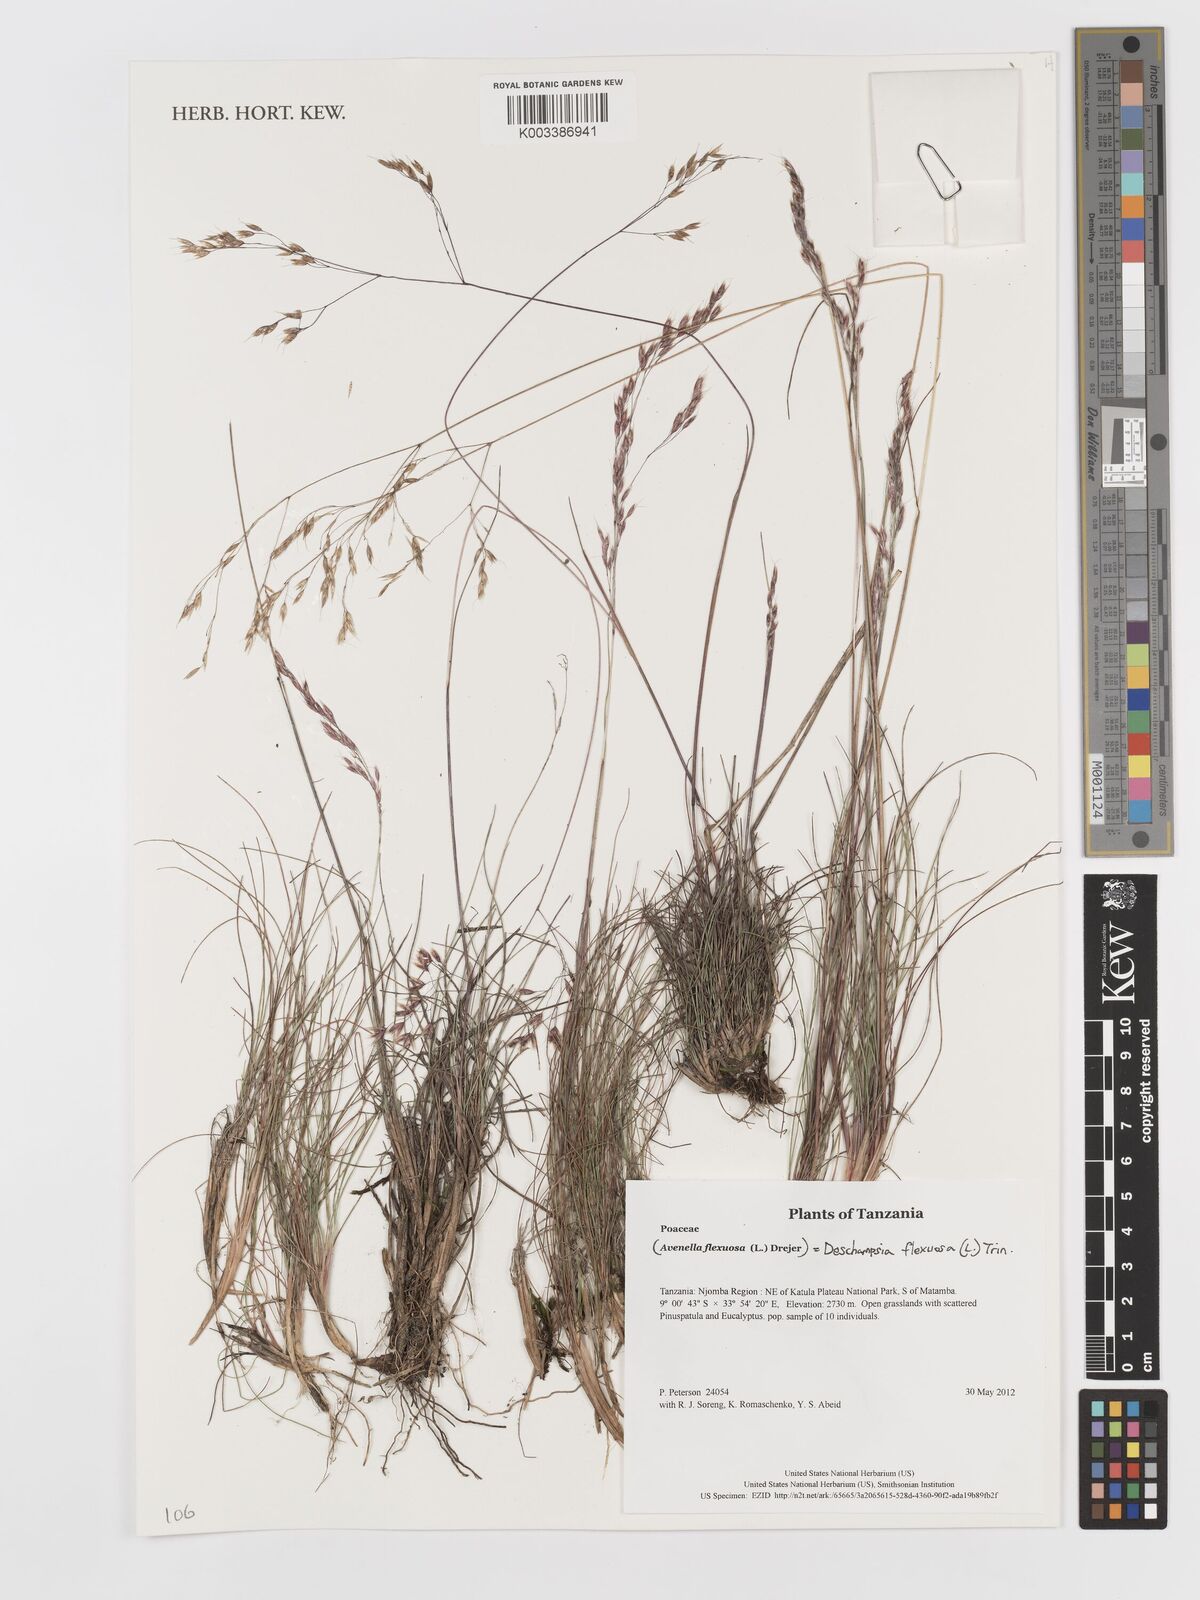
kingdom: Plantae
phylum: Tracheophyta
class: Liliopsida
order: Poales
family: Poaceae
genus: Avenella
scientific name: Avenella flexuosa
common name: Wavy hairgrass
